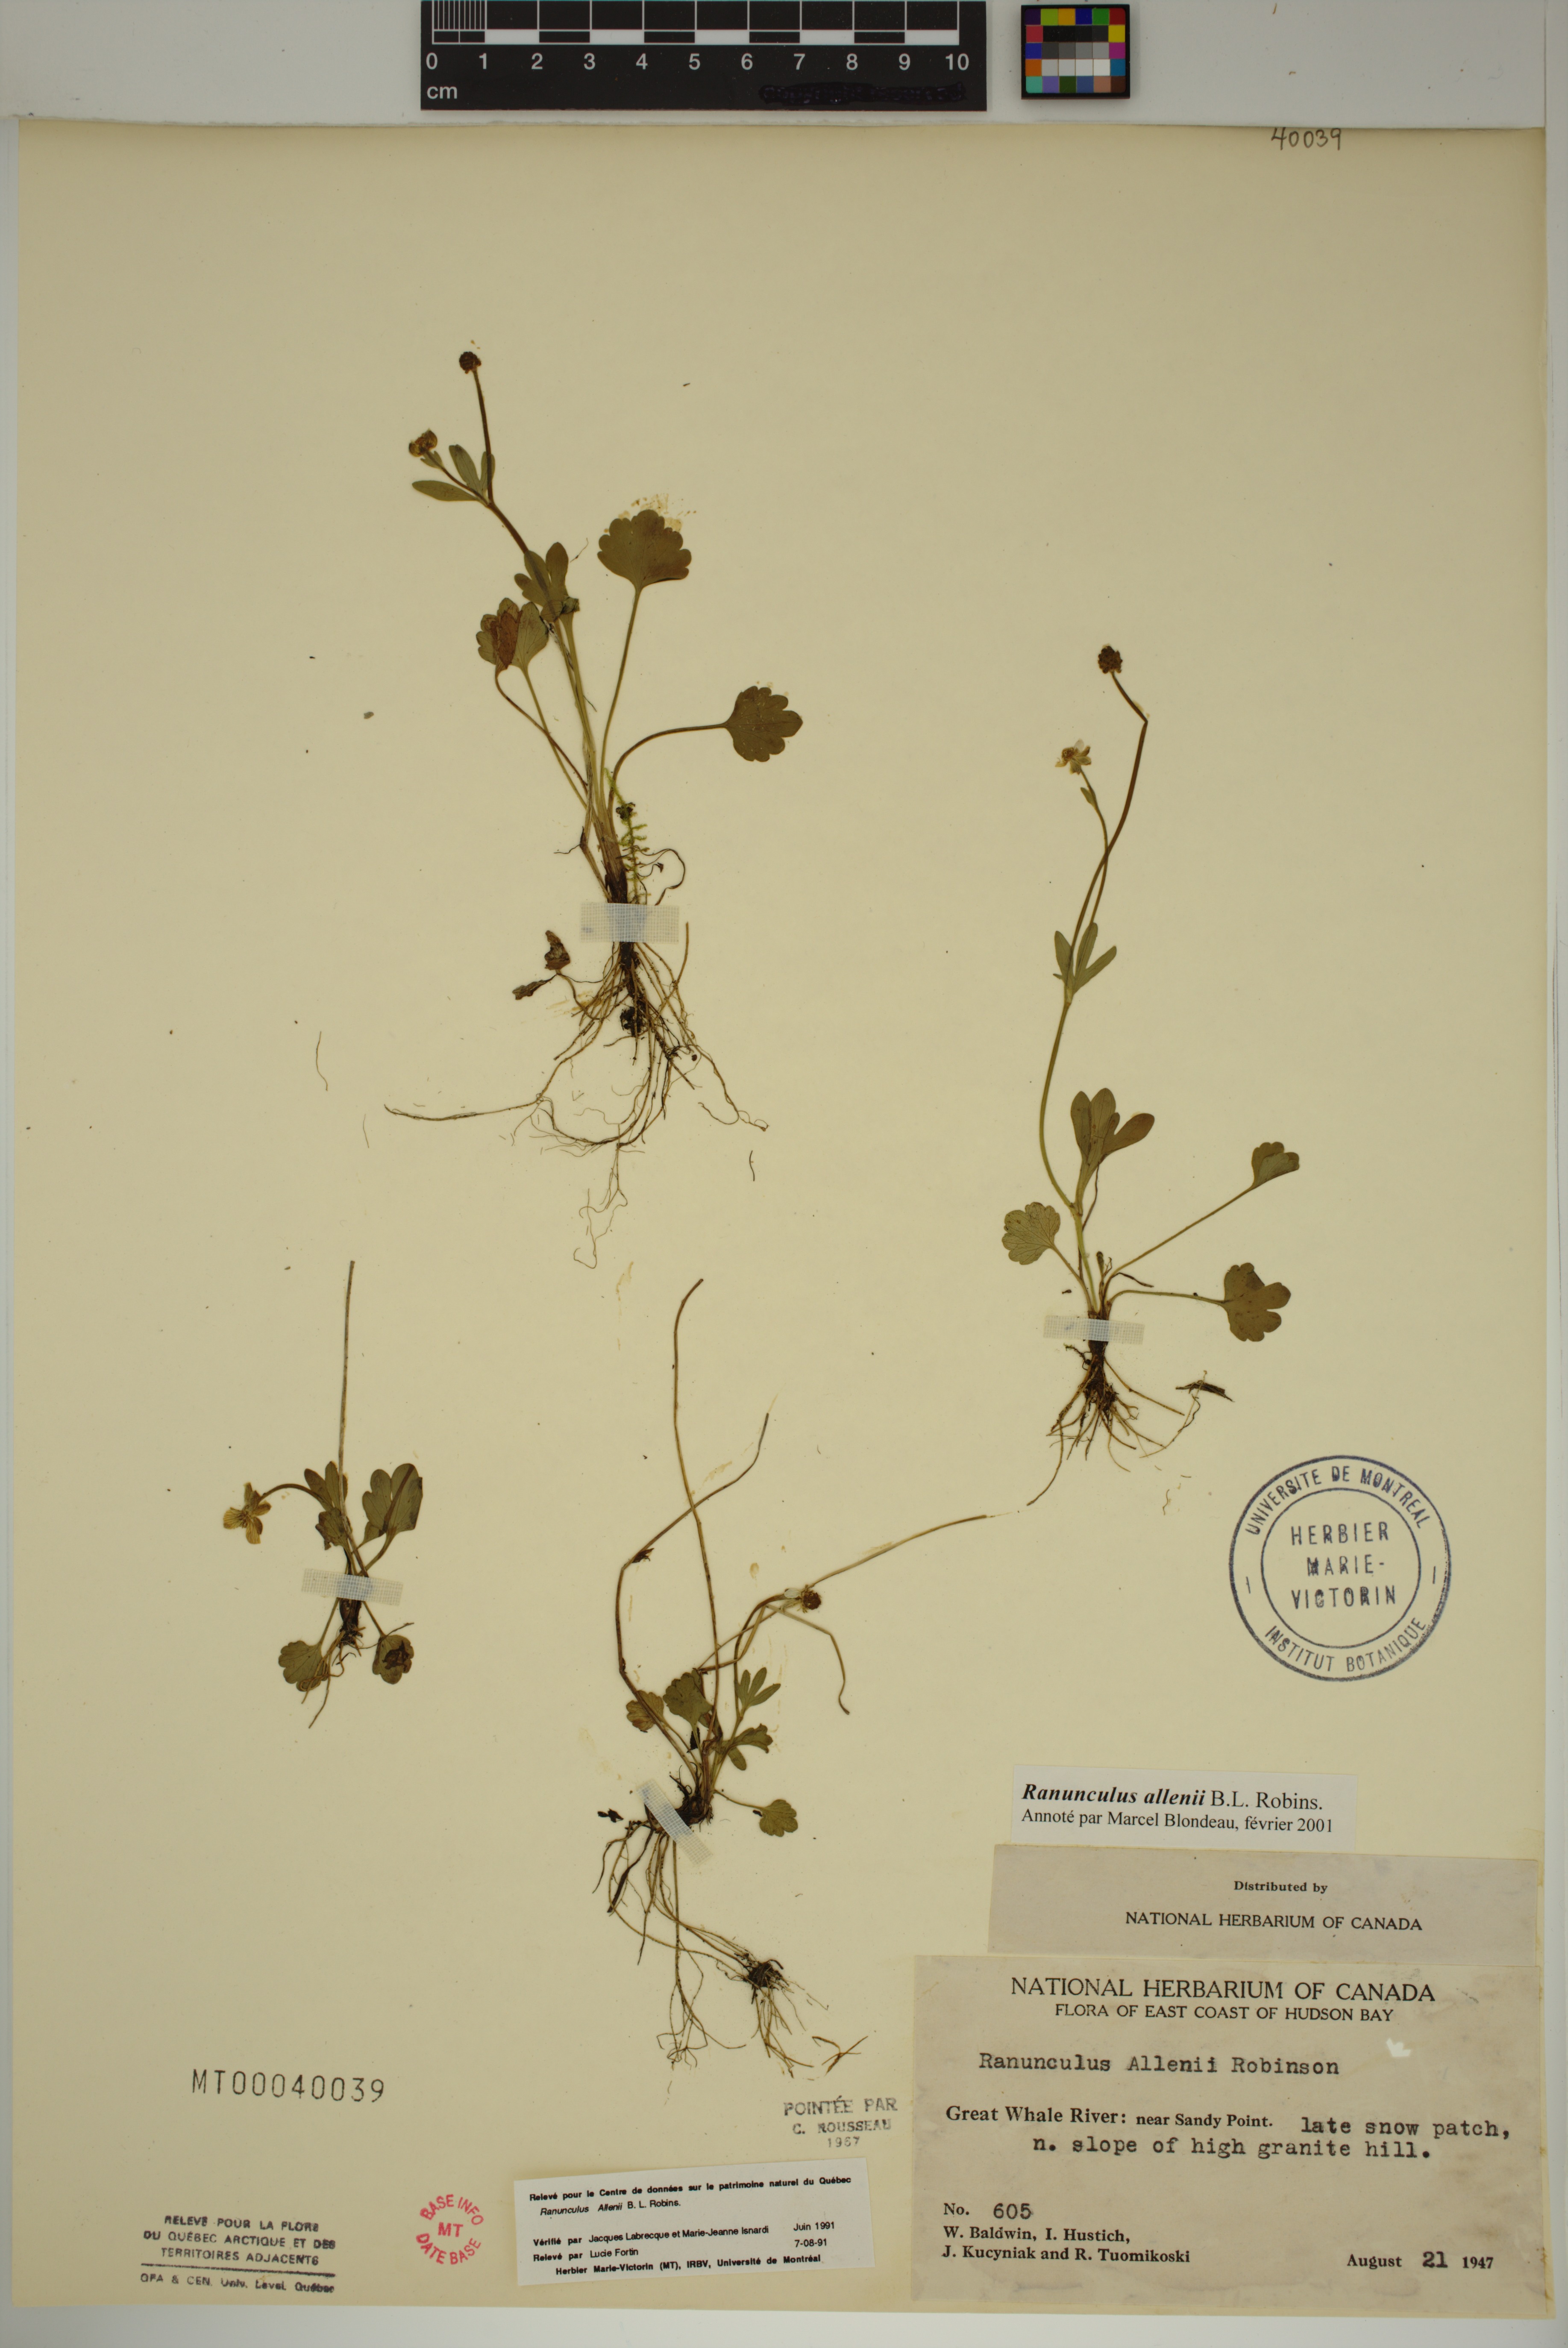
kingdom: Plantae
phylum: Tracheophyta
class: Magnoliopsida
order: Ranunculales
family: Ranunculaceae
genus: Ranunculus
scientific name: Ranunculus allenii
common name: Allen's buttercup
